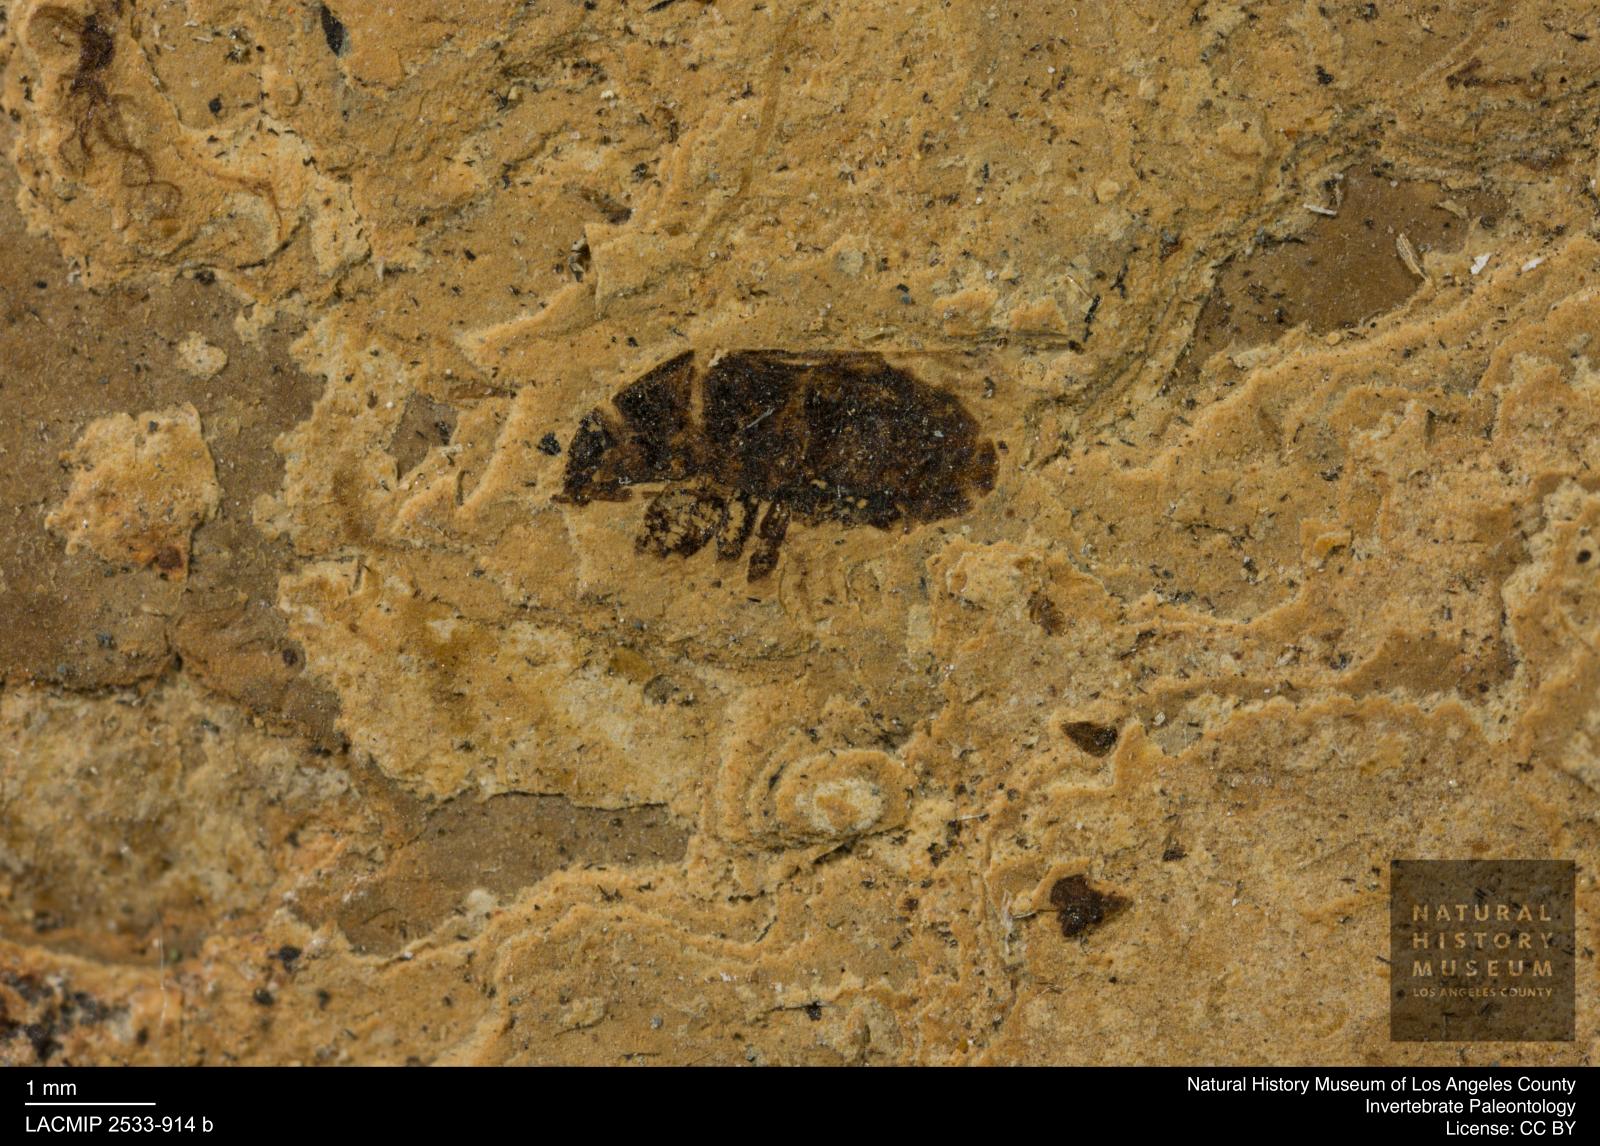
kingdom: Animalia
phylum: Arthropoda
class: Insecta
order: Hemiptera
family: Lygaeidae
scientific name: Lygaeidae
